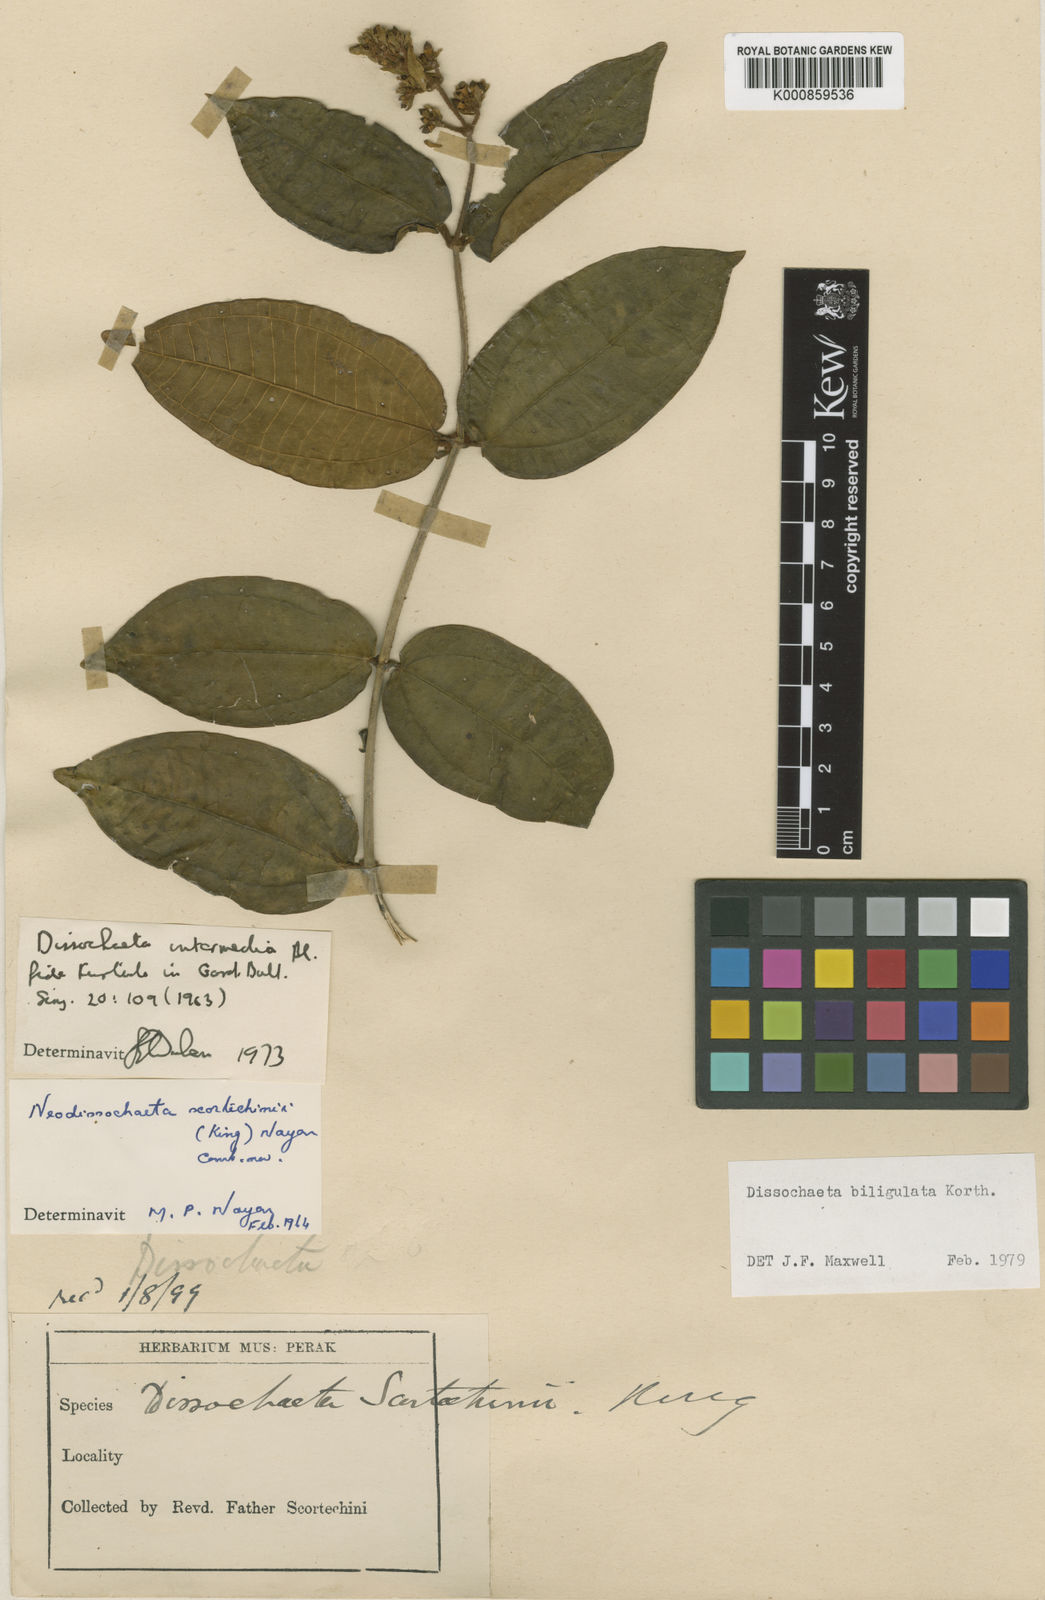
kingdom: Plantae
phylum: Tracheophyta
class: Magnoliopsida
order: Myrtales
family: Melastomataceae
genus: Dissochaeta
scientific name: Dissochaeta biligulata
